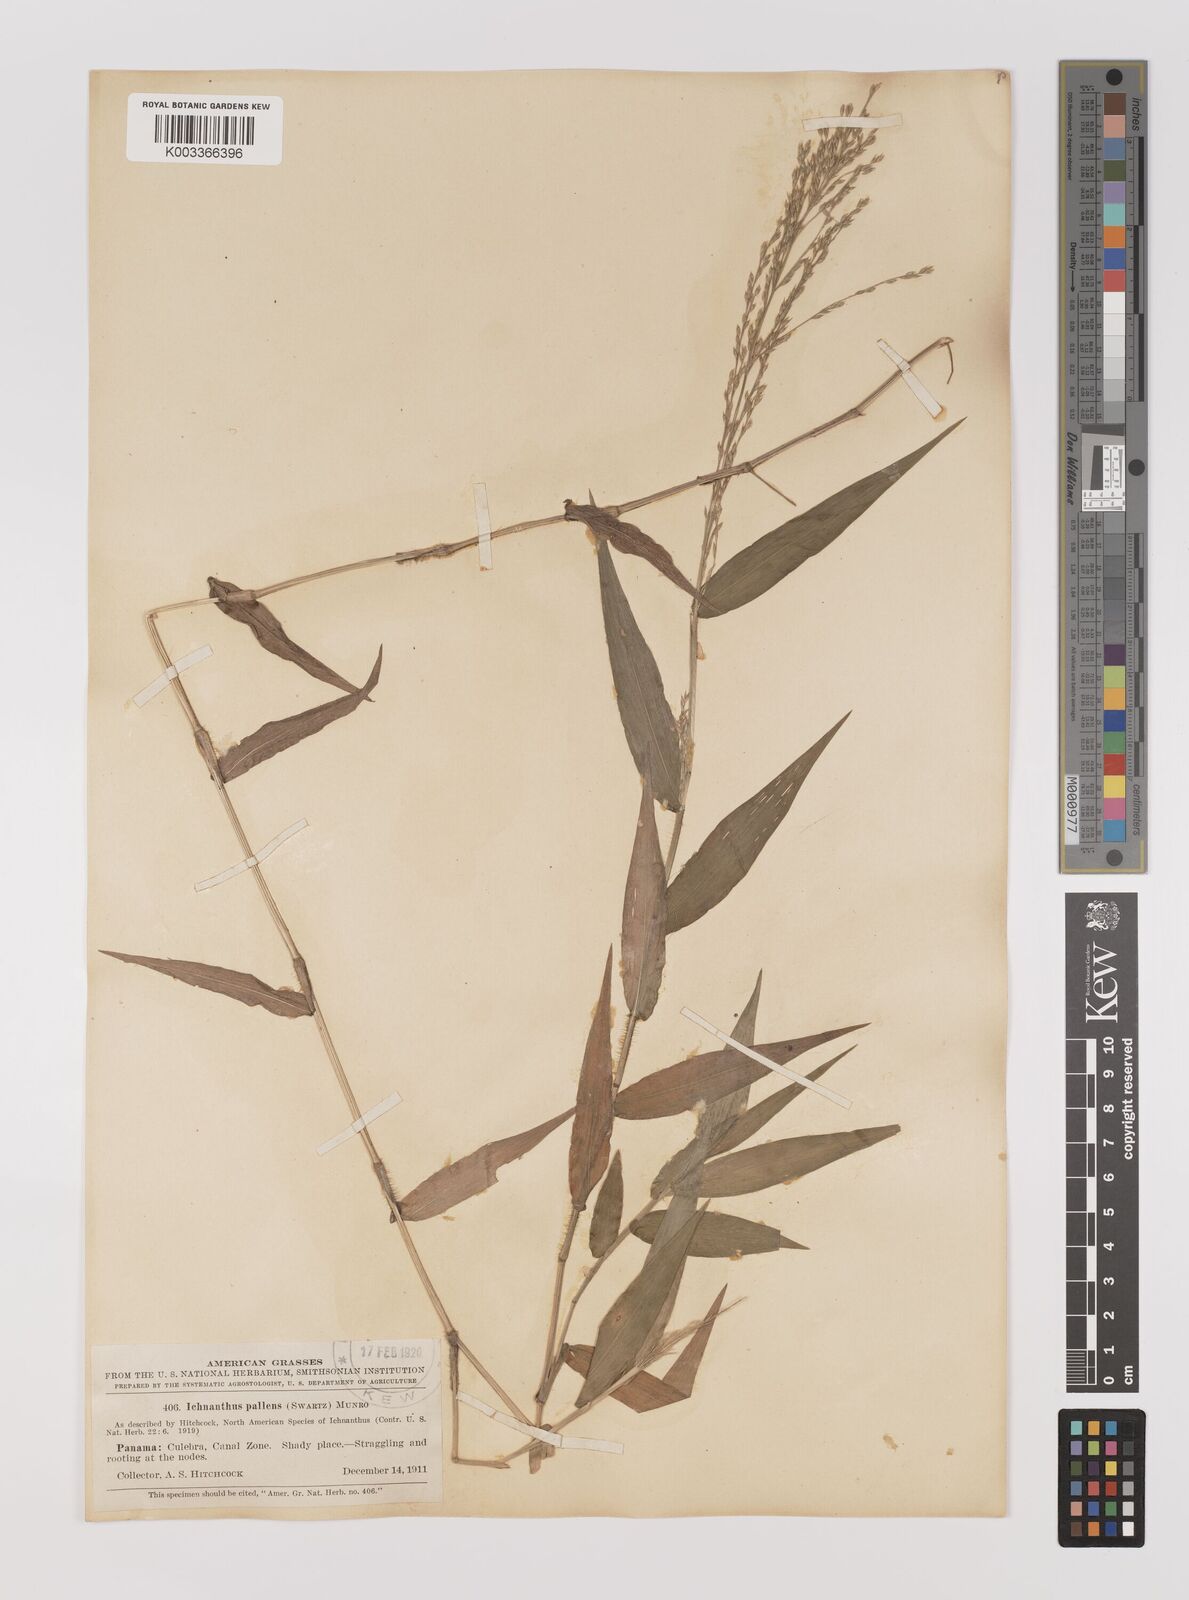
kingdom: Plantae
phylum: Tracheophyta
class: Liliopsida
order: Poales
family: Poaceae
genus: Ichnanthus
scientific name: Ichnanthus pallens
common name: Water grass
